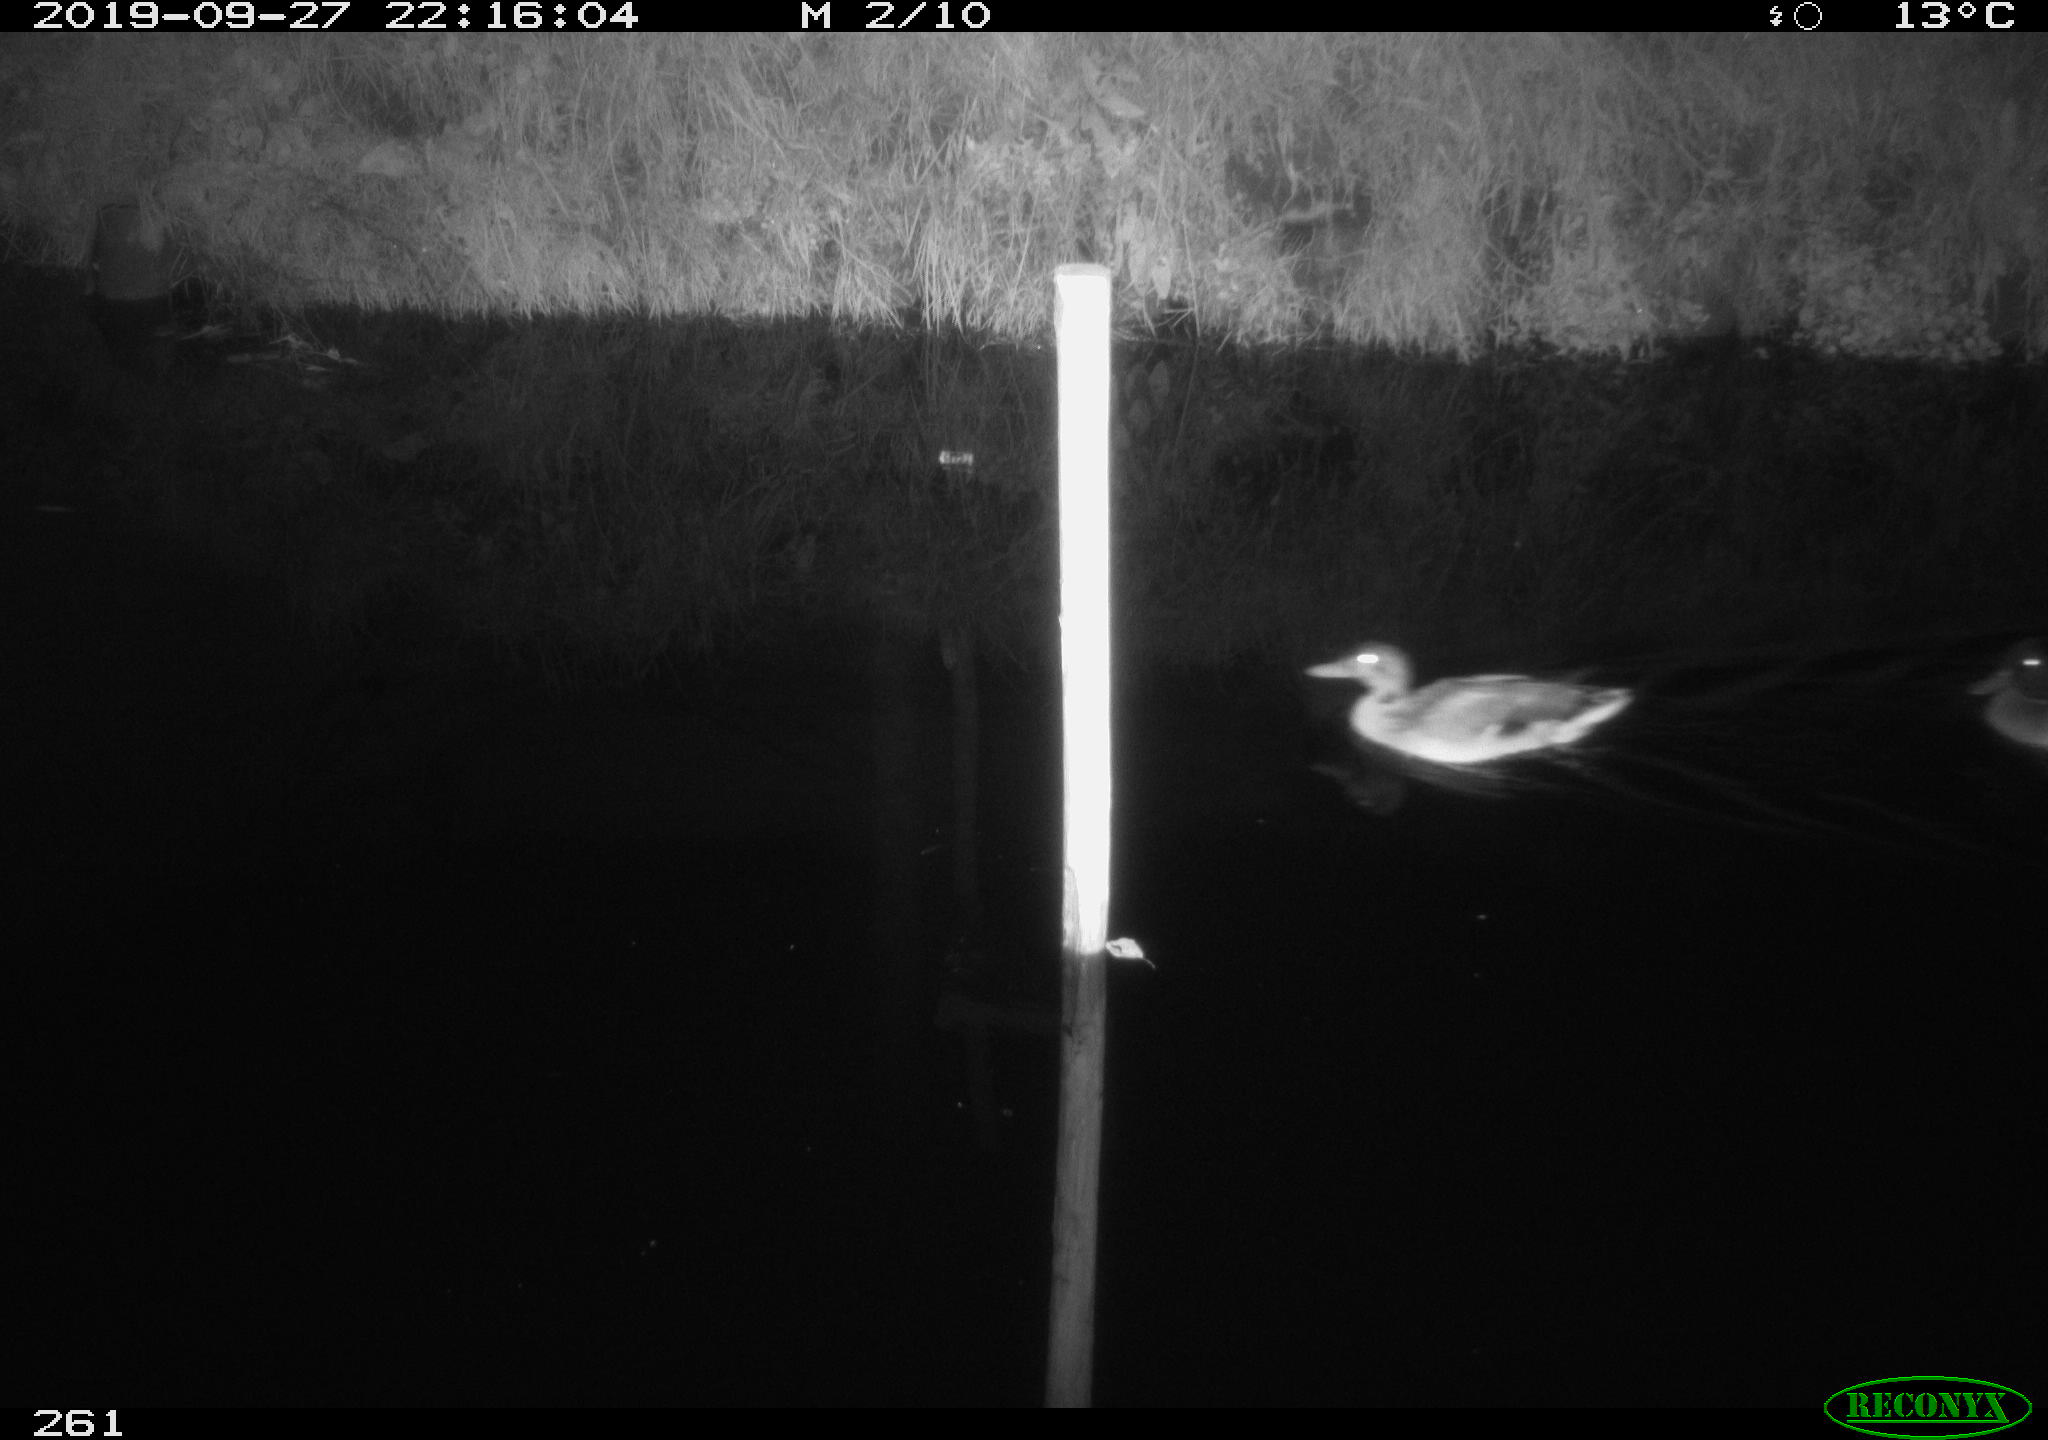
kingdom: Animalia
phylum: Chordata
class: Aves
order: Anseriformes
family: Anatidae
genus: Anas
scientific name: Anas platyrhynchos
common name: Mallard
